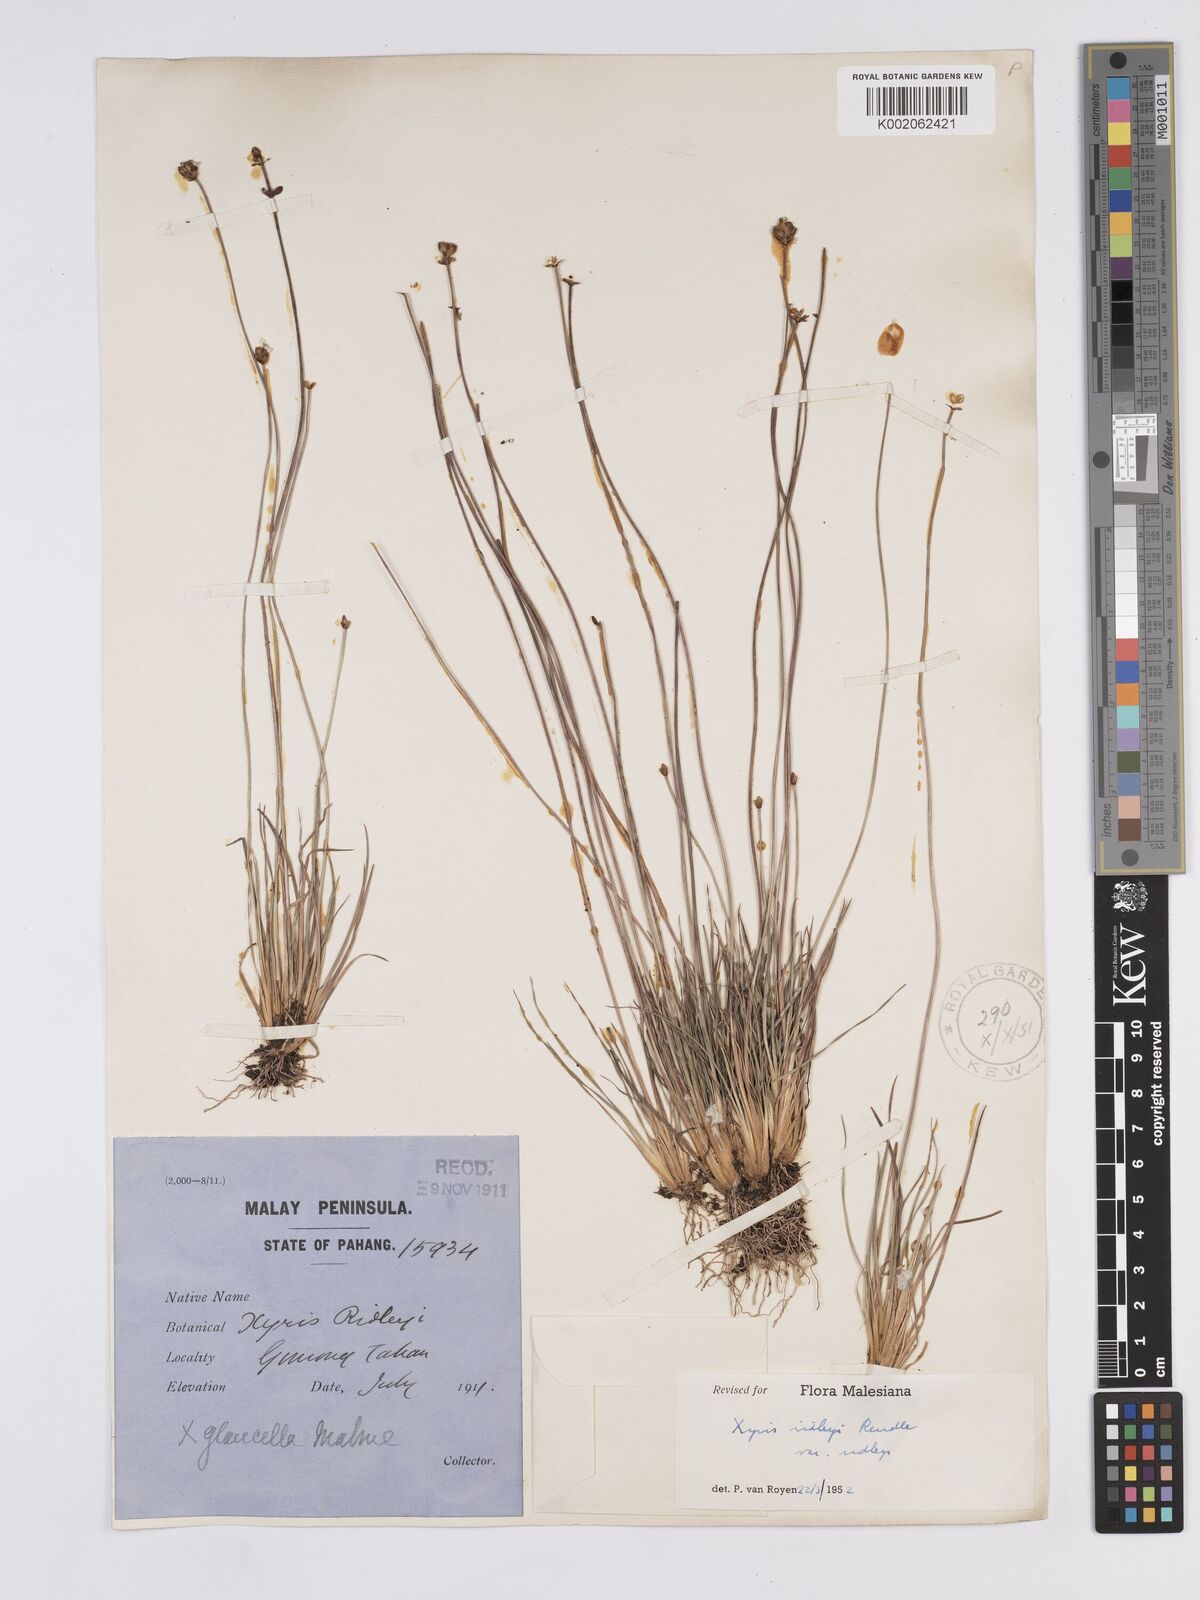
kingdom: Plantae
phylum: Tracheophyta
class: Liliopsida
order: Poales
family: Xyridaceae
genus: Xyris
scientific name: Xyris bancana
